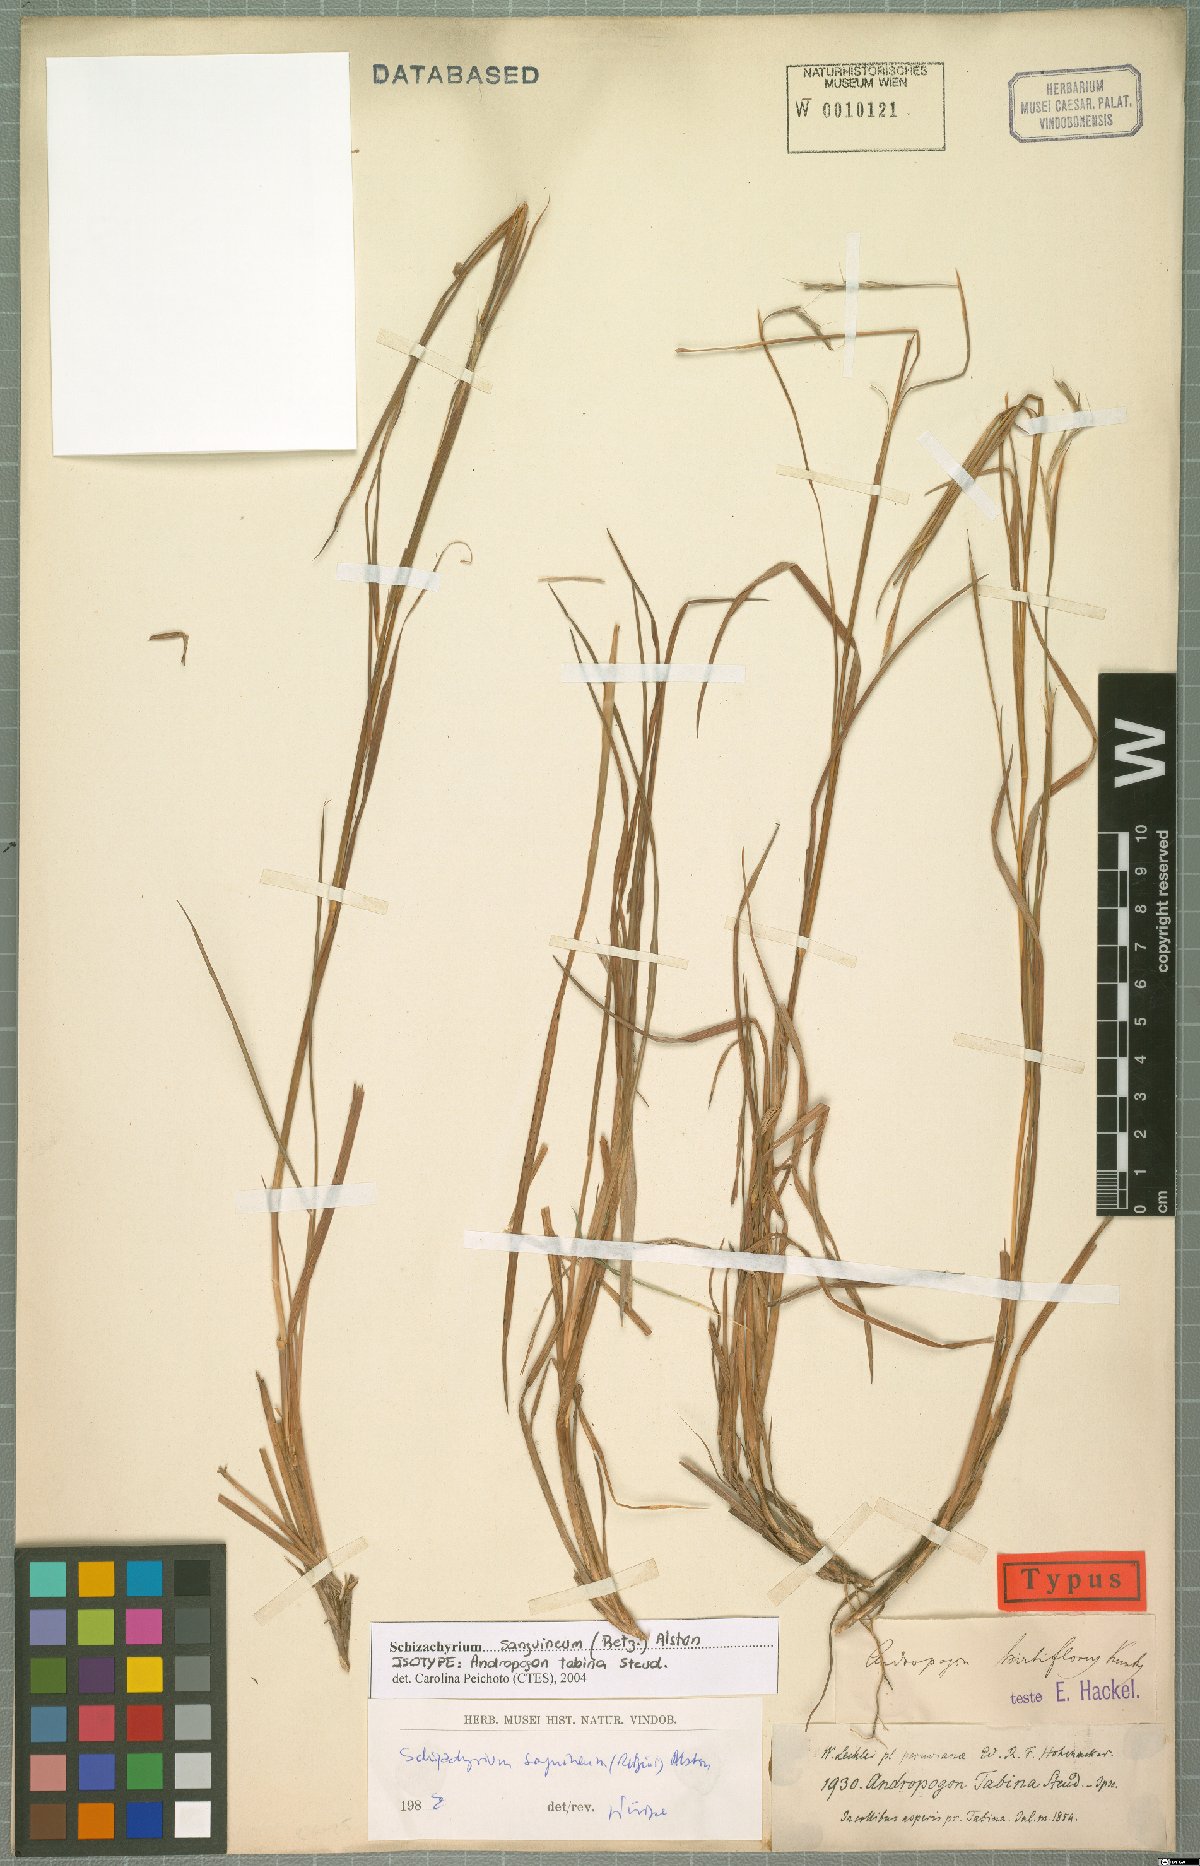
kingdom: Plantae
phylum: Tracheophyta
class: Liliopsida
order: Poales
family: Poaceae
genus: Schizachyrium
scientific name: Schizachyrium sanguineum
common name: Crimson bluestem
